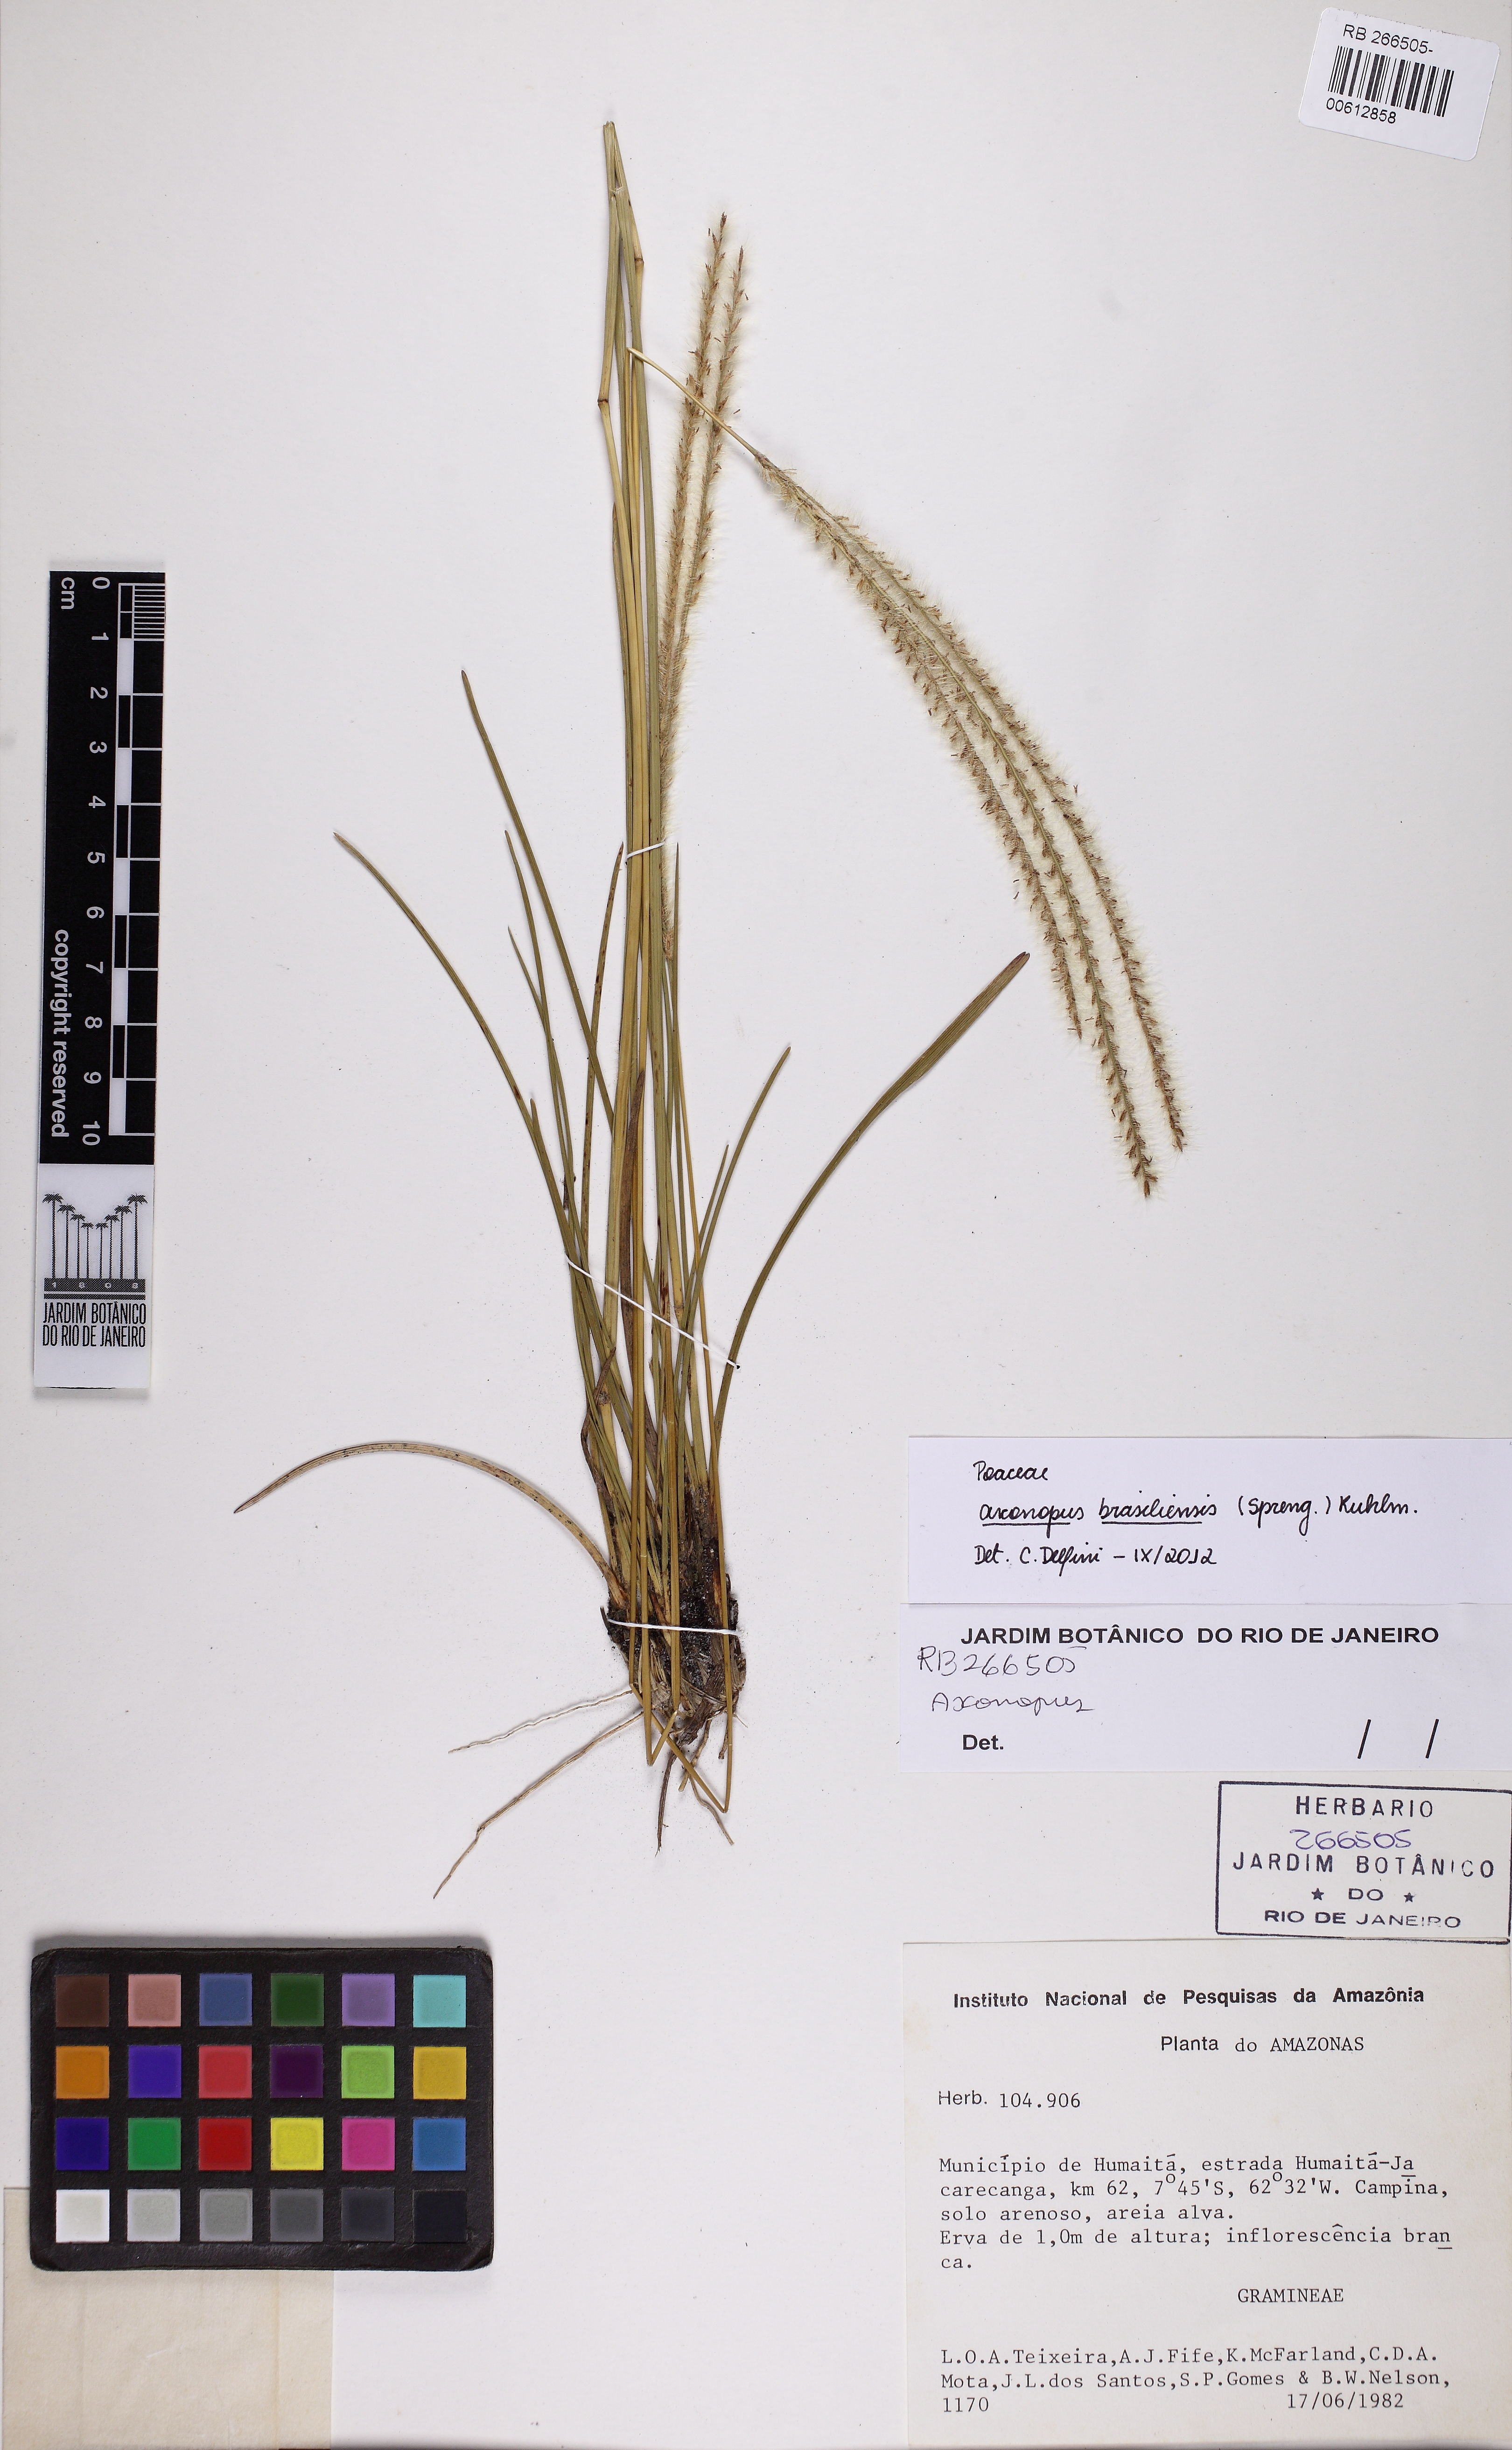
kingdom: Plantae
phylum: Tracheophyta
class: Liliopsida
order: Poales
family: Poaceae
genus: Axonopus
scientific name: Axonopus brasiliensis
